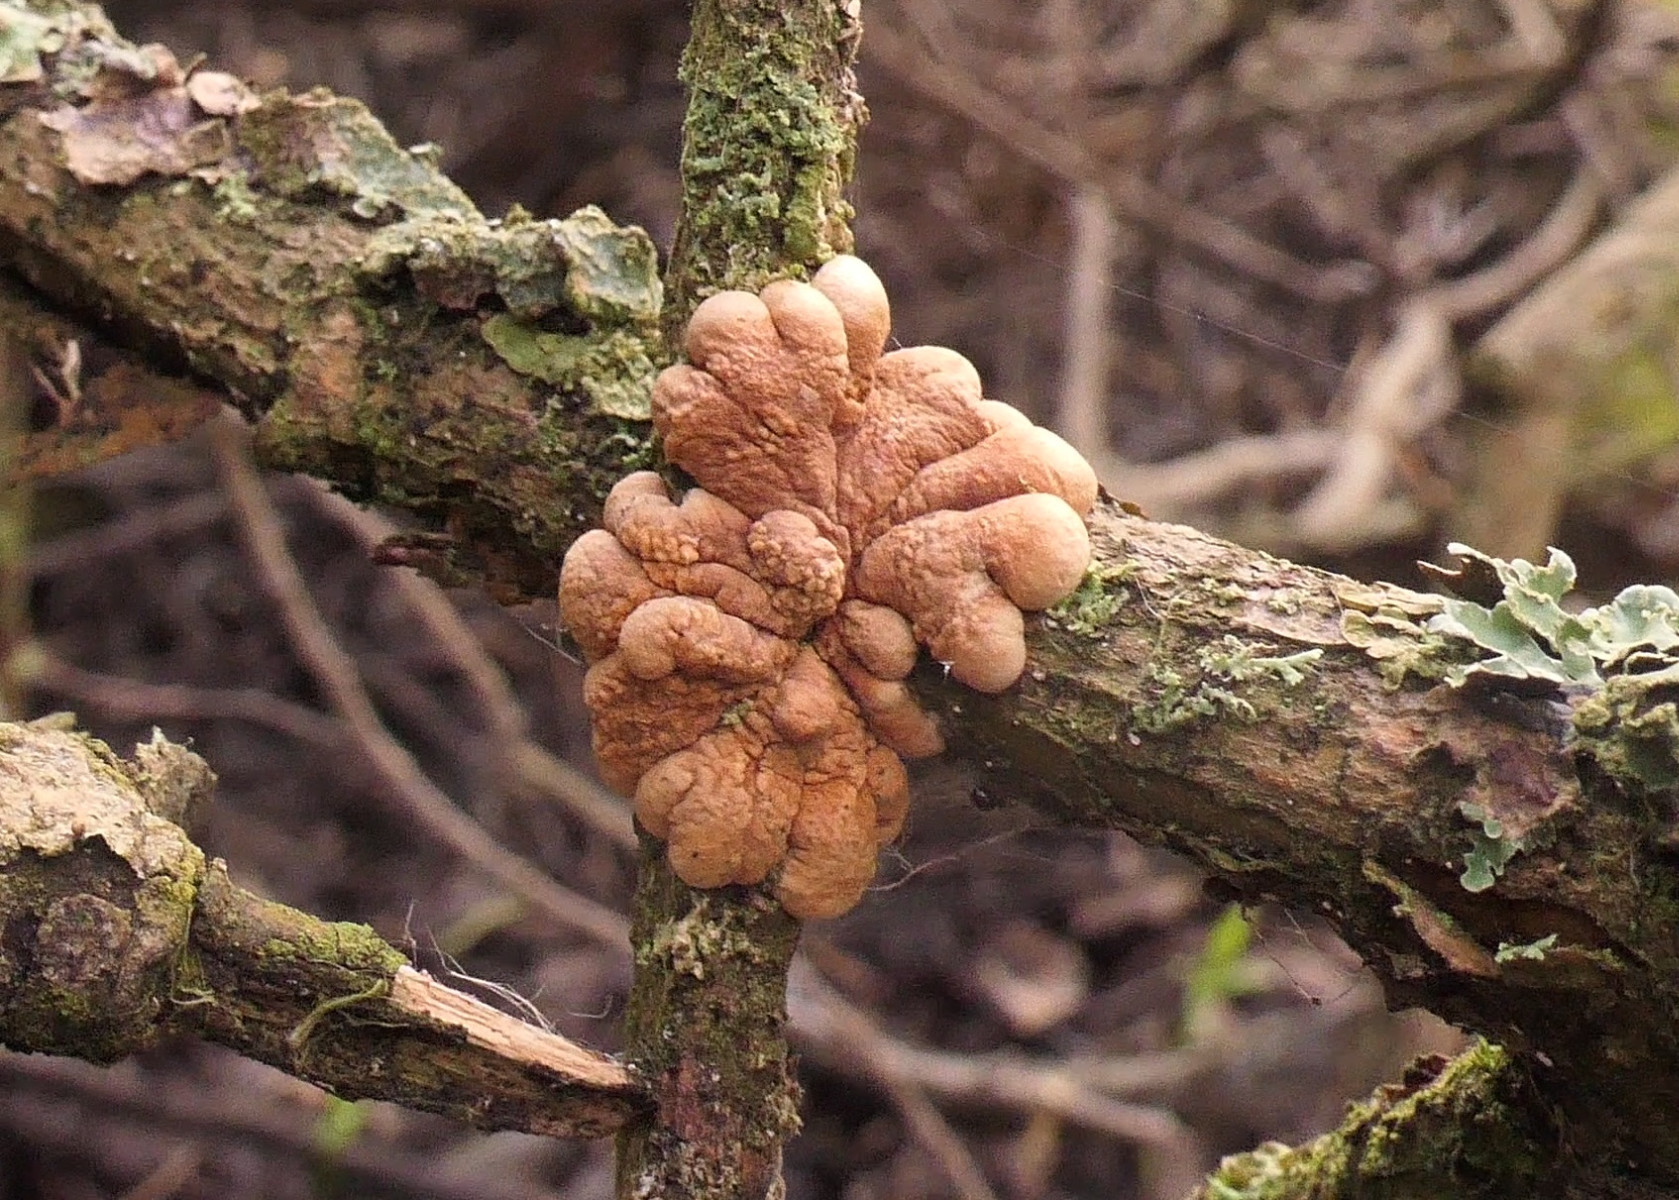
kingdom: Fungi
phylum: Ascomycota
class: Sordariomycetes
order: Hypocreales
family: Hypocreaceae
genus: Hypocreopsis
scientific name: Hypocreopsis lichenoides
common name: pilfinger
